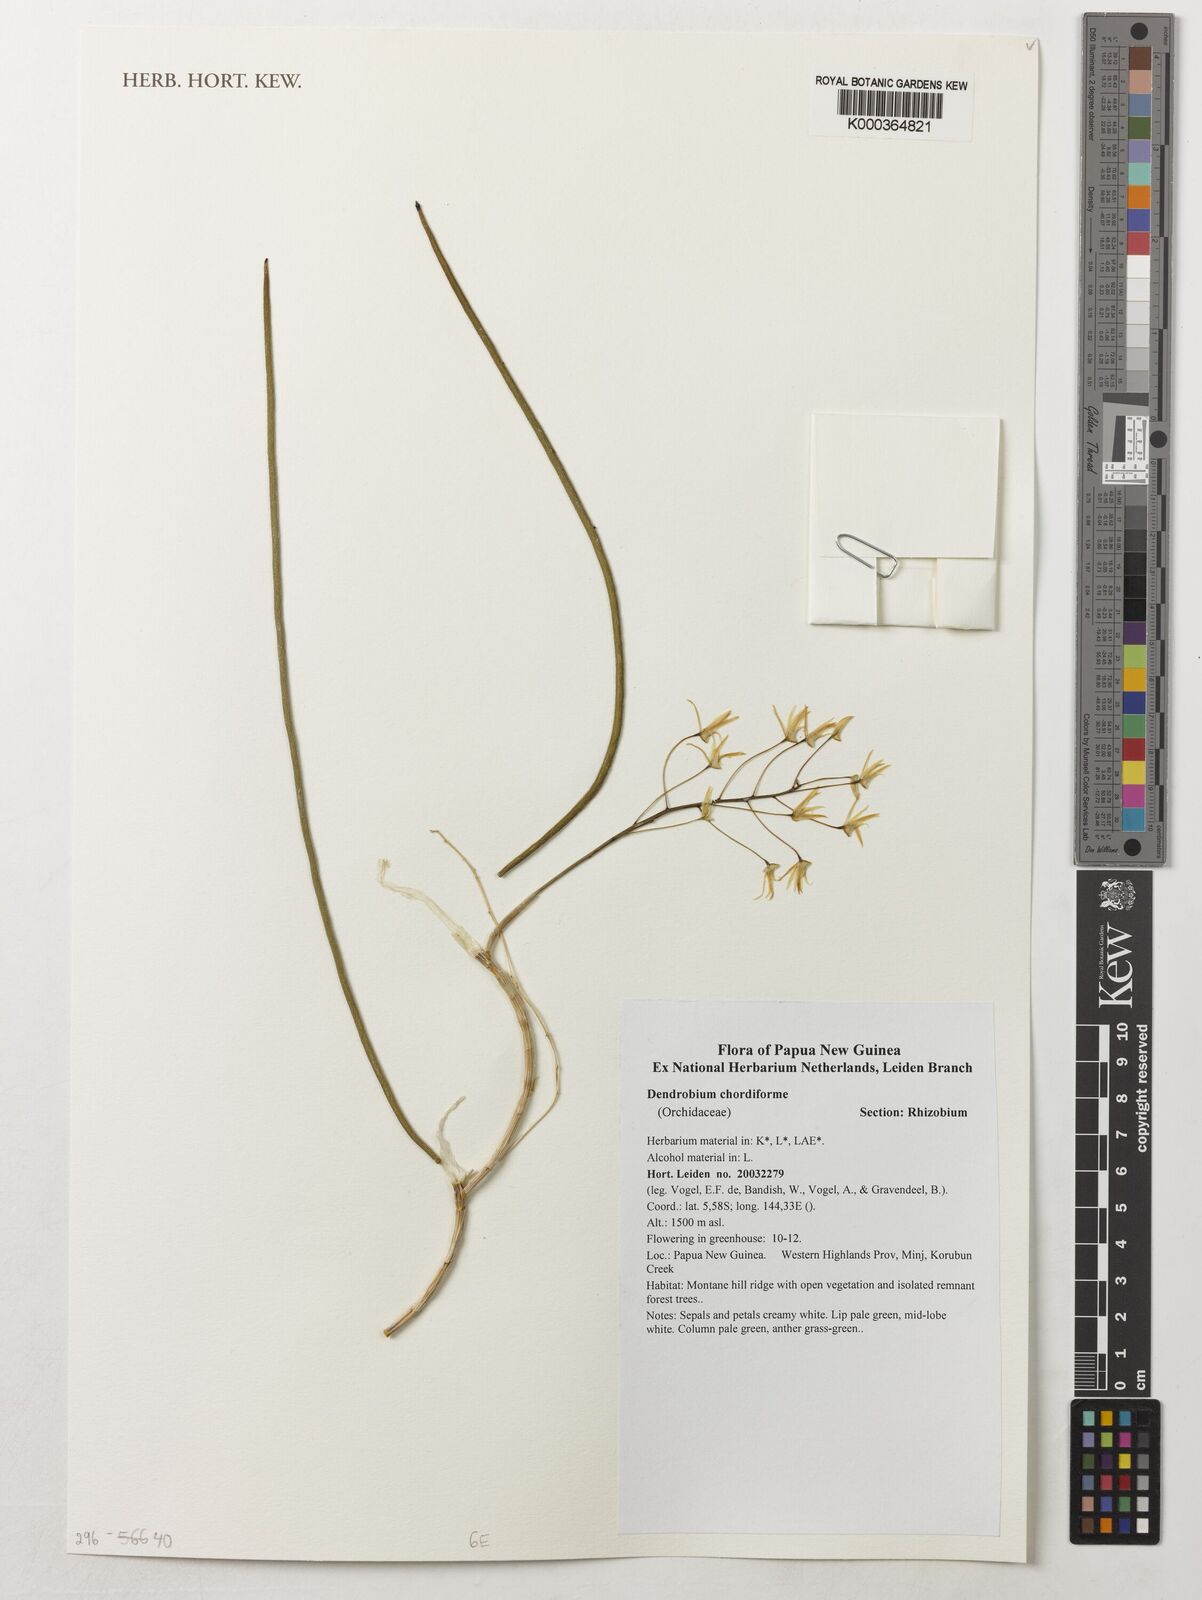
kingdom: Plantae
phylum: Tracheophyta
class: Liliopsida
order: Asparagales
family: Orchidaceae
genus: Dendrobium
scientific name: Dendrobium chordiforme
